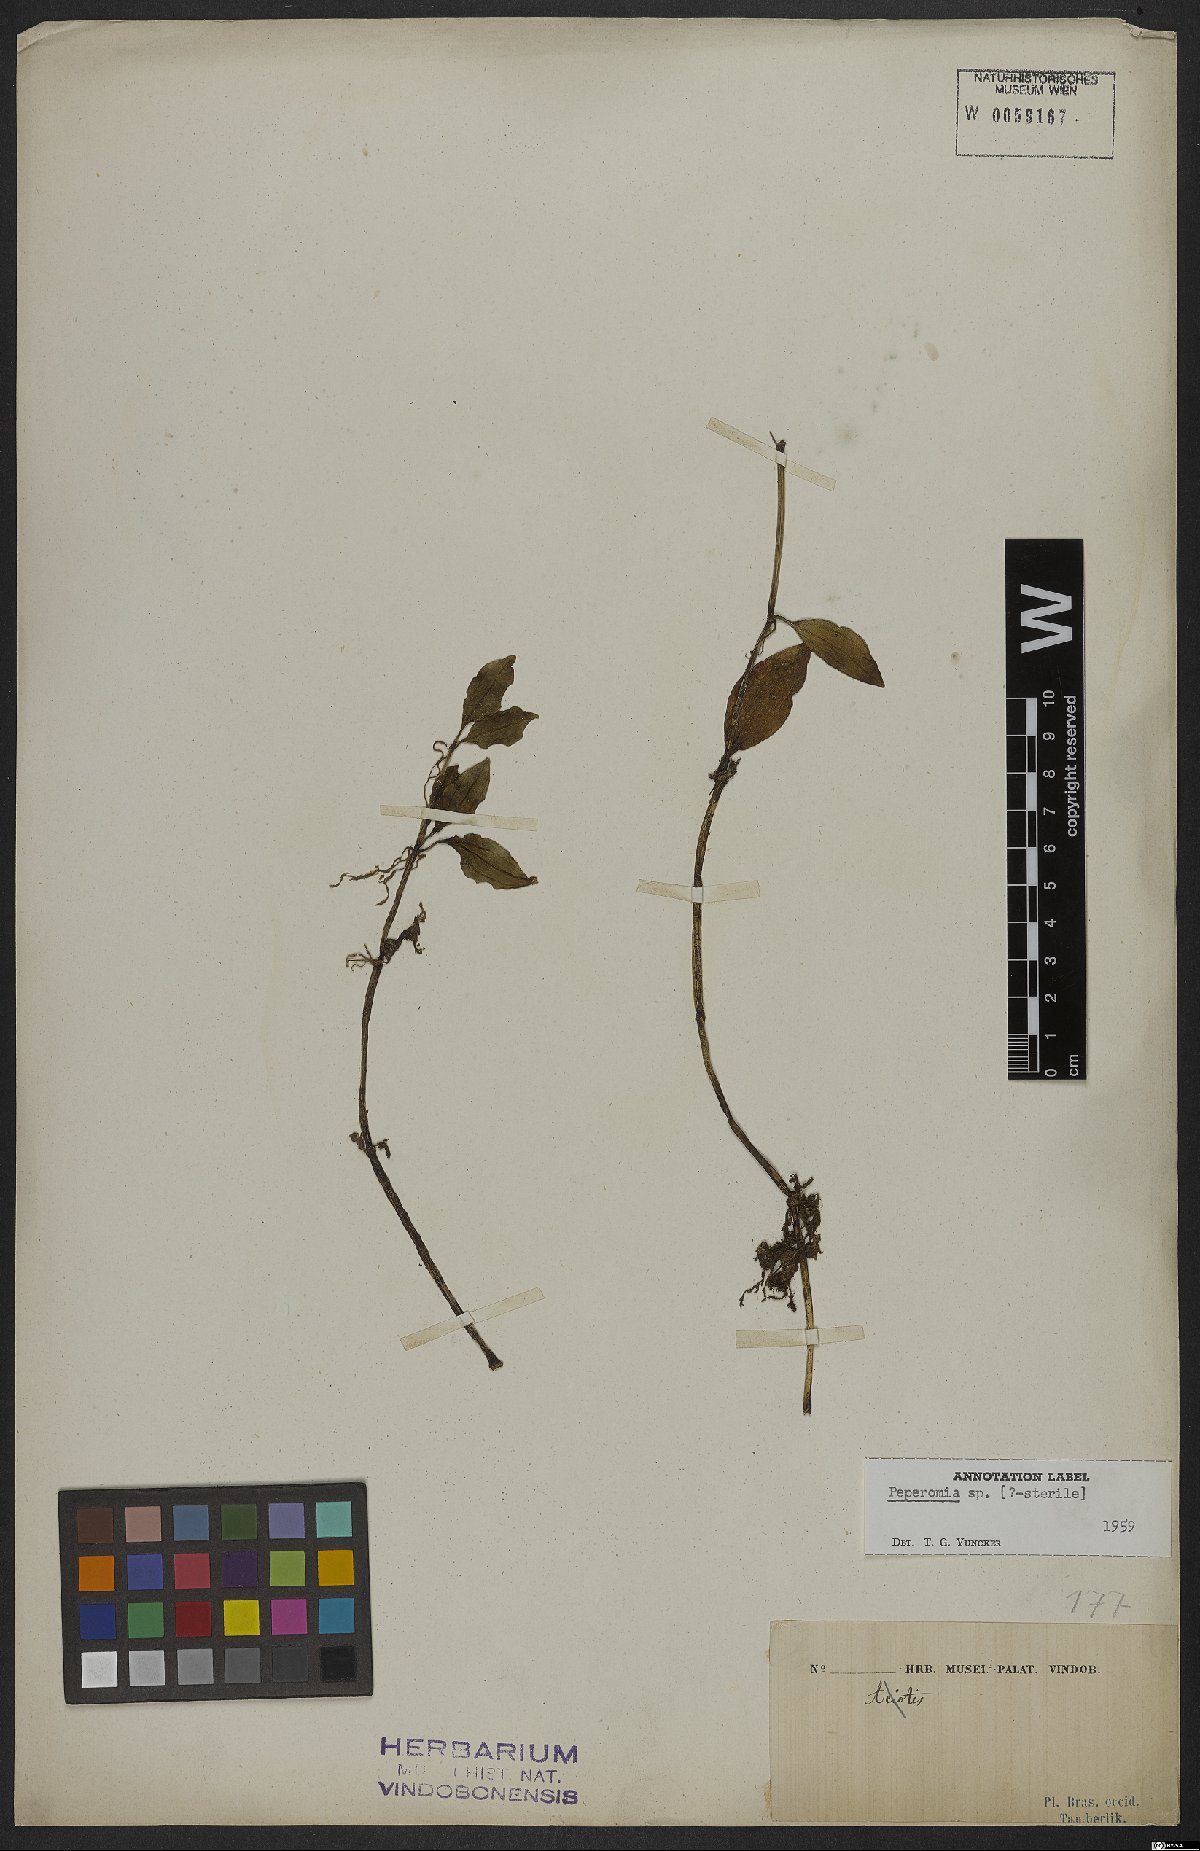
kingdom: Plantae
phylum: Tracheophyta
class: Magnoliopsida
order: Piperales
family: Piperaceae
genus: Peperomia
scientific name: Peperomia
